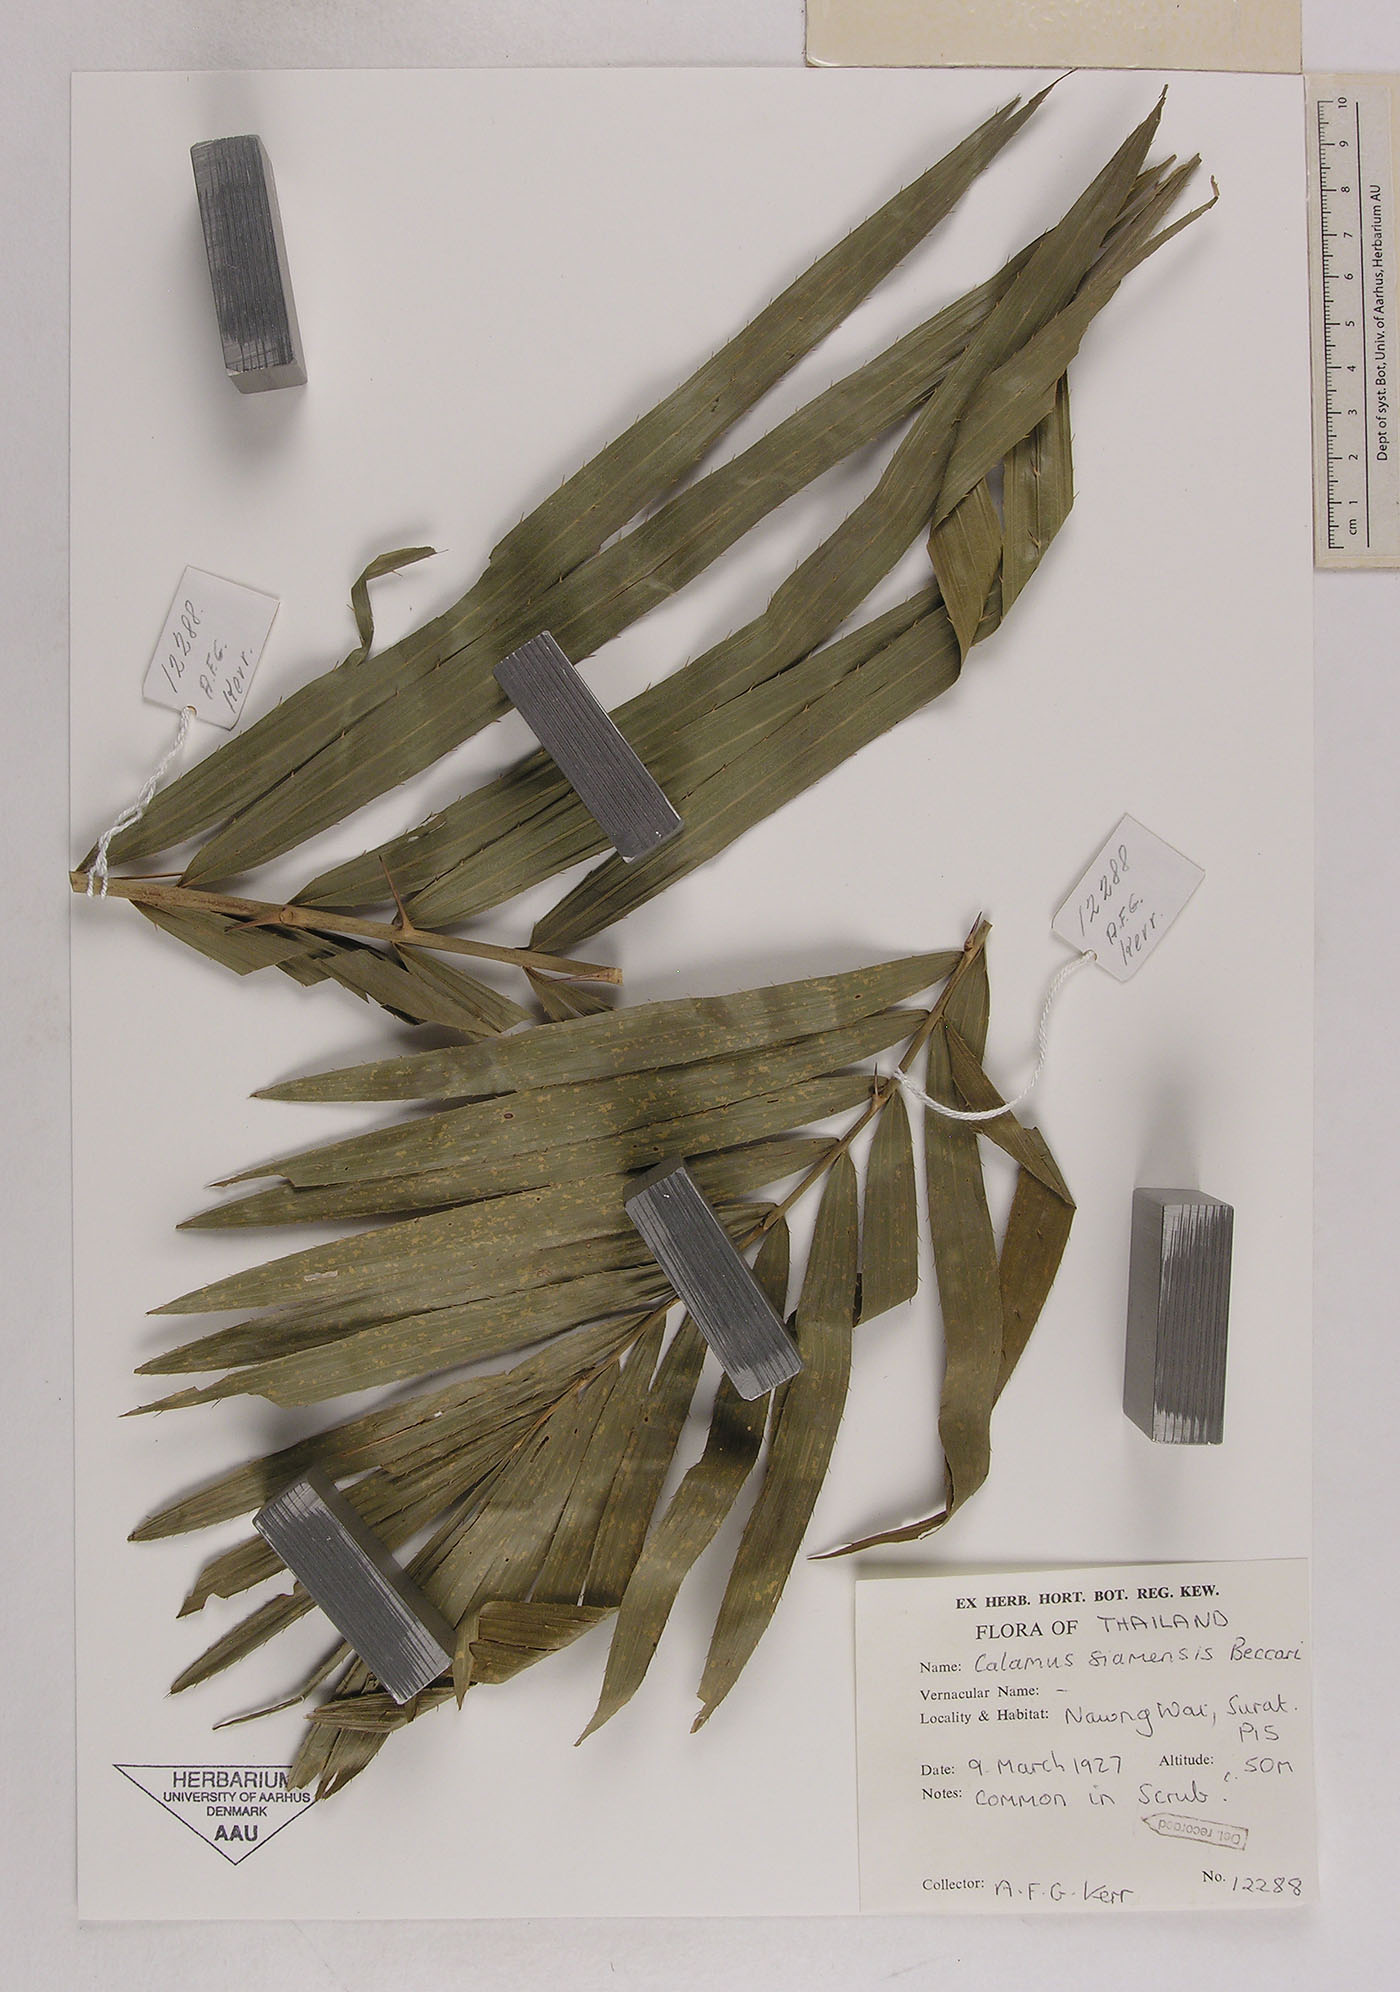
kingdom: Plantae
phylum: Tracheophyta
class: Liliopsida
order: Arecales
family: Arecaceae
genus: Calamus
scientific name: Calamus viminalis
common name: Osier-like rattan palm
